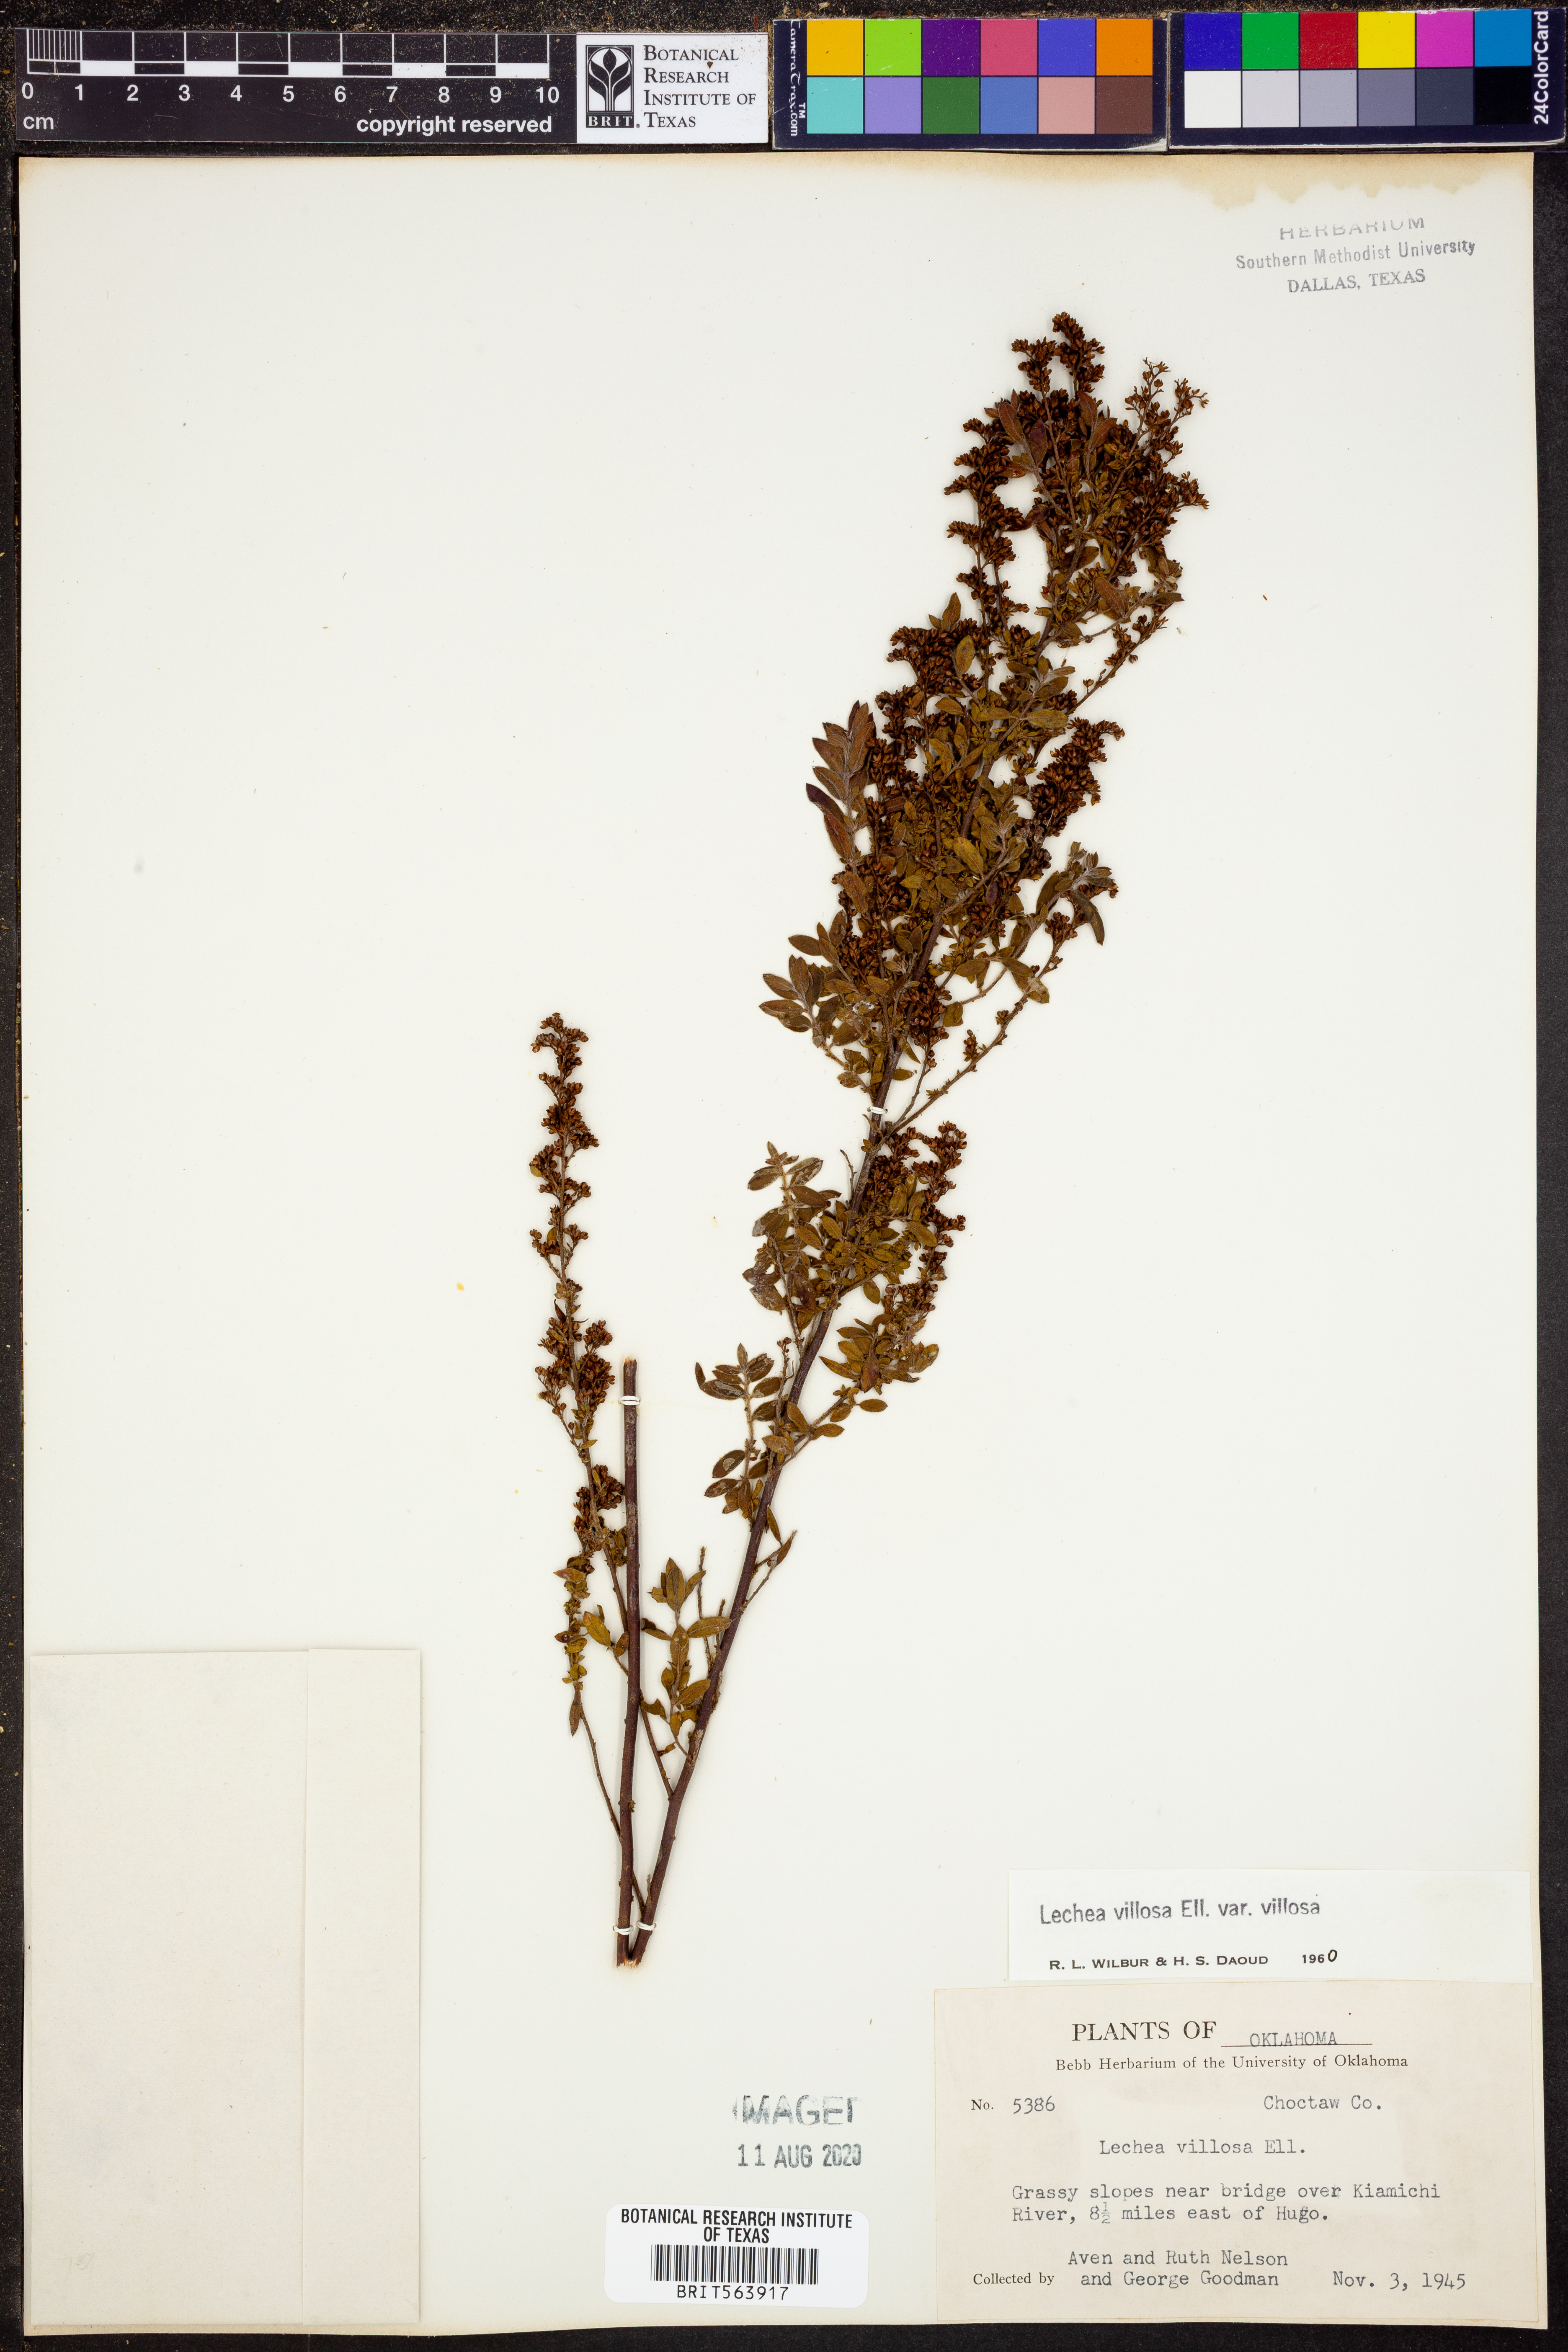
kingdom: Plantae
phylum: Tracheophyta
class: Magnoliopsida
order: Malvales
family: Cistaceae
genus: Lechea
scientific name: Lechea mucronata
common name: Hairy pinweed
